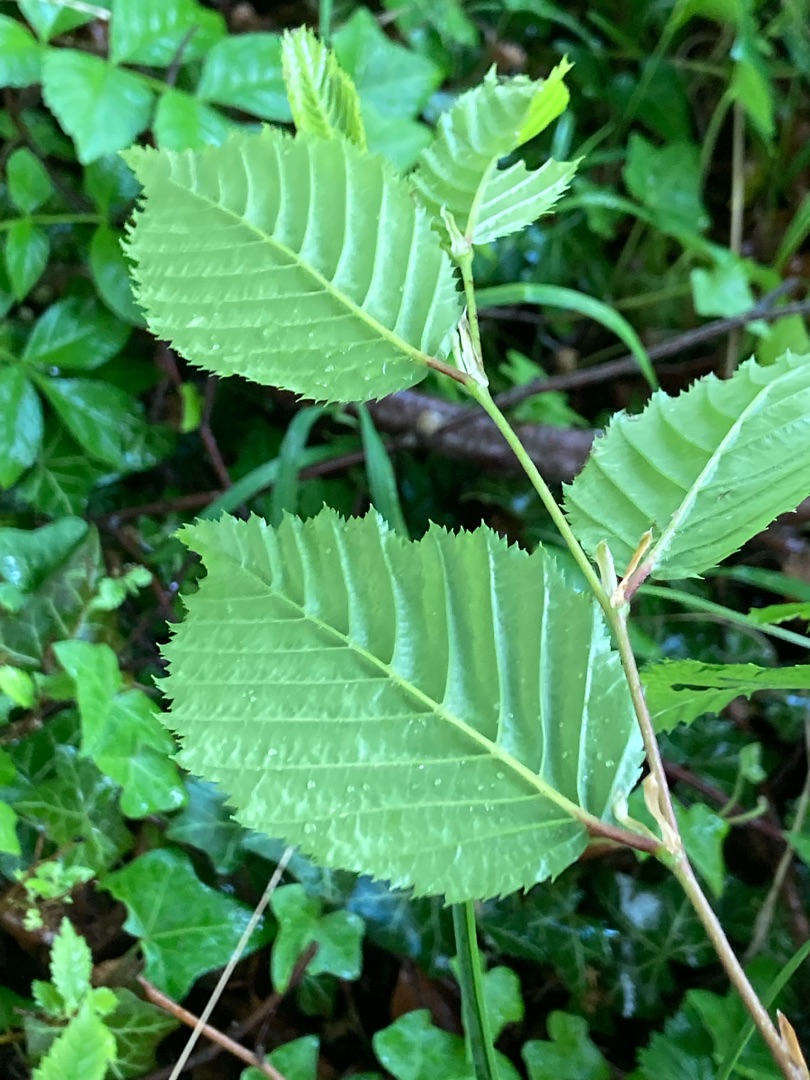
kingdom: Plantae
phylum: Tracheophyta
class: Magnoliopsida
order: Fagales
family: Betulaceae
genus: Carpinus
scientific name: Carpinus betulus
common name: Avnbøg
